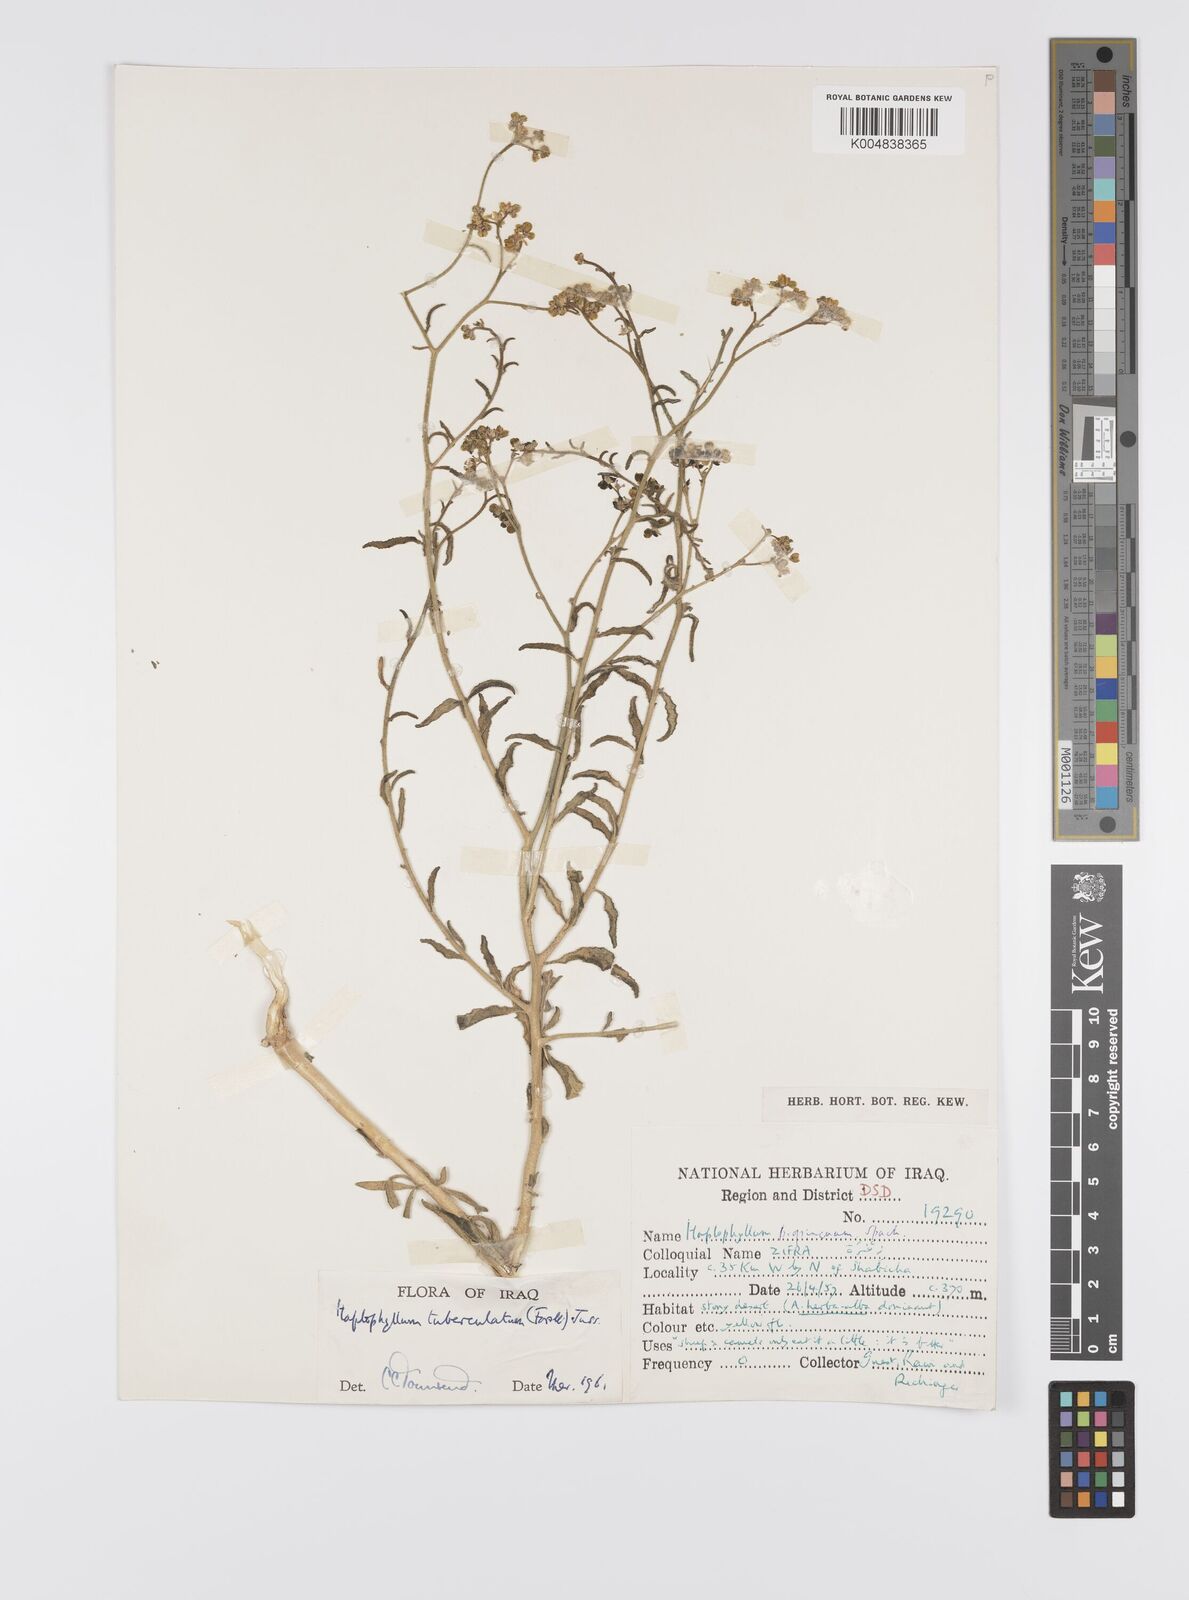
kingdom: Plantae
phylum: Tracheophyta
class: Magnoliopsida
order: Sapindales
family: Rutaceae
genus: Haplophyllum
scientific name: Haplophyllum tuberculatum
